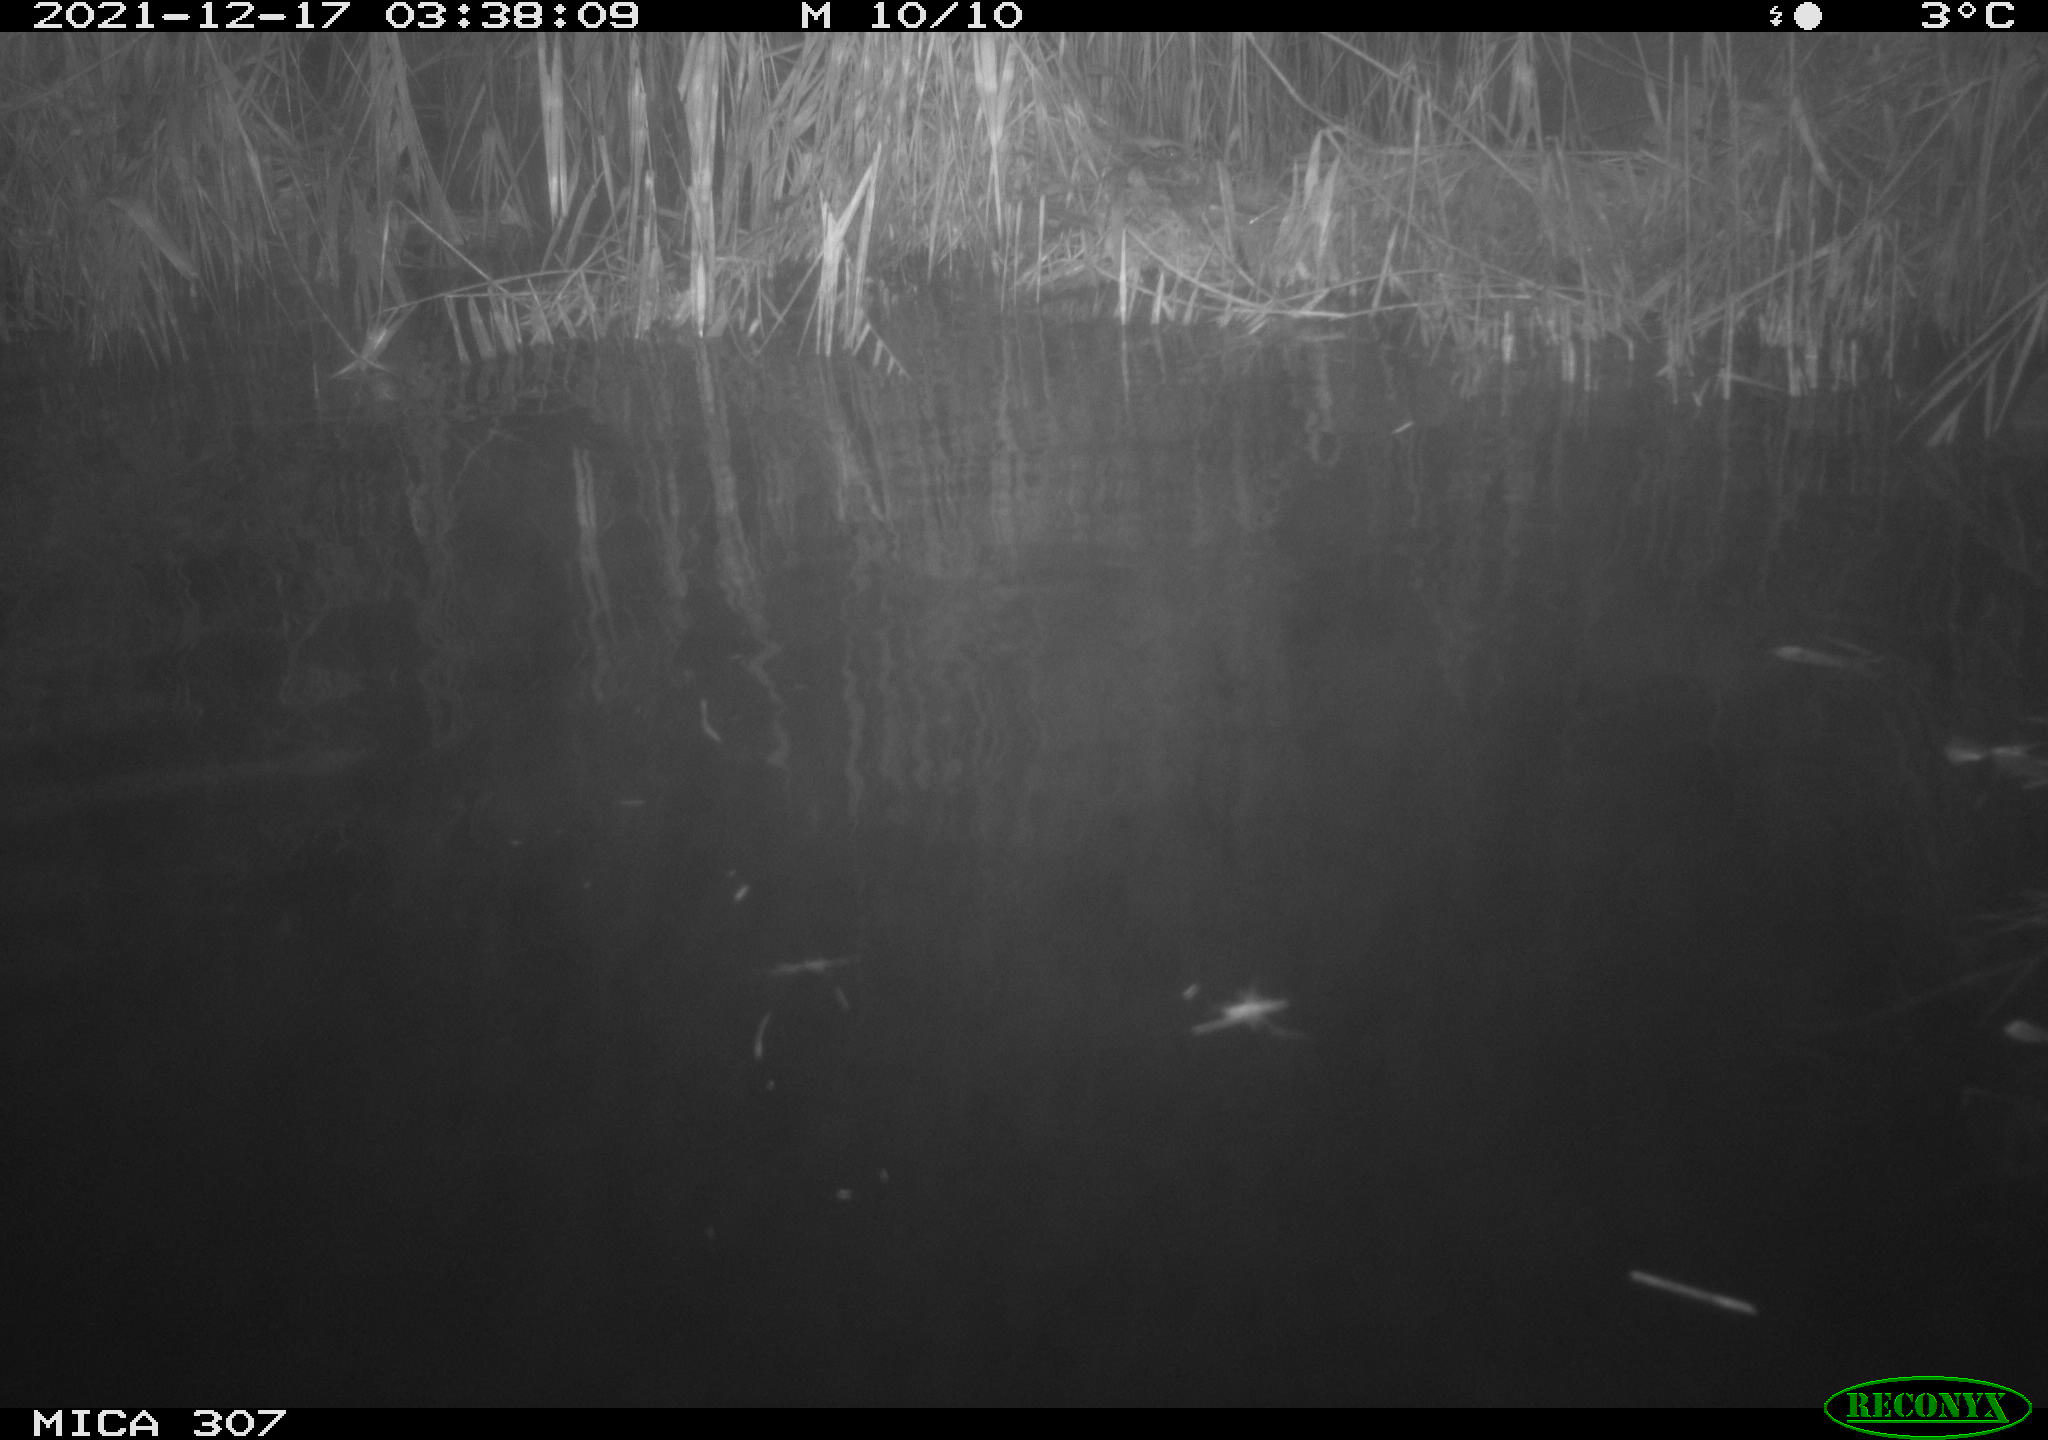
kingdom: Animalia
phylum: Chordata
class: Mammalia
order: Rodentia
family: Cricetidae
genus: Ondatra
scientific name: Ondatra zibethicus
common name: Muskrat
